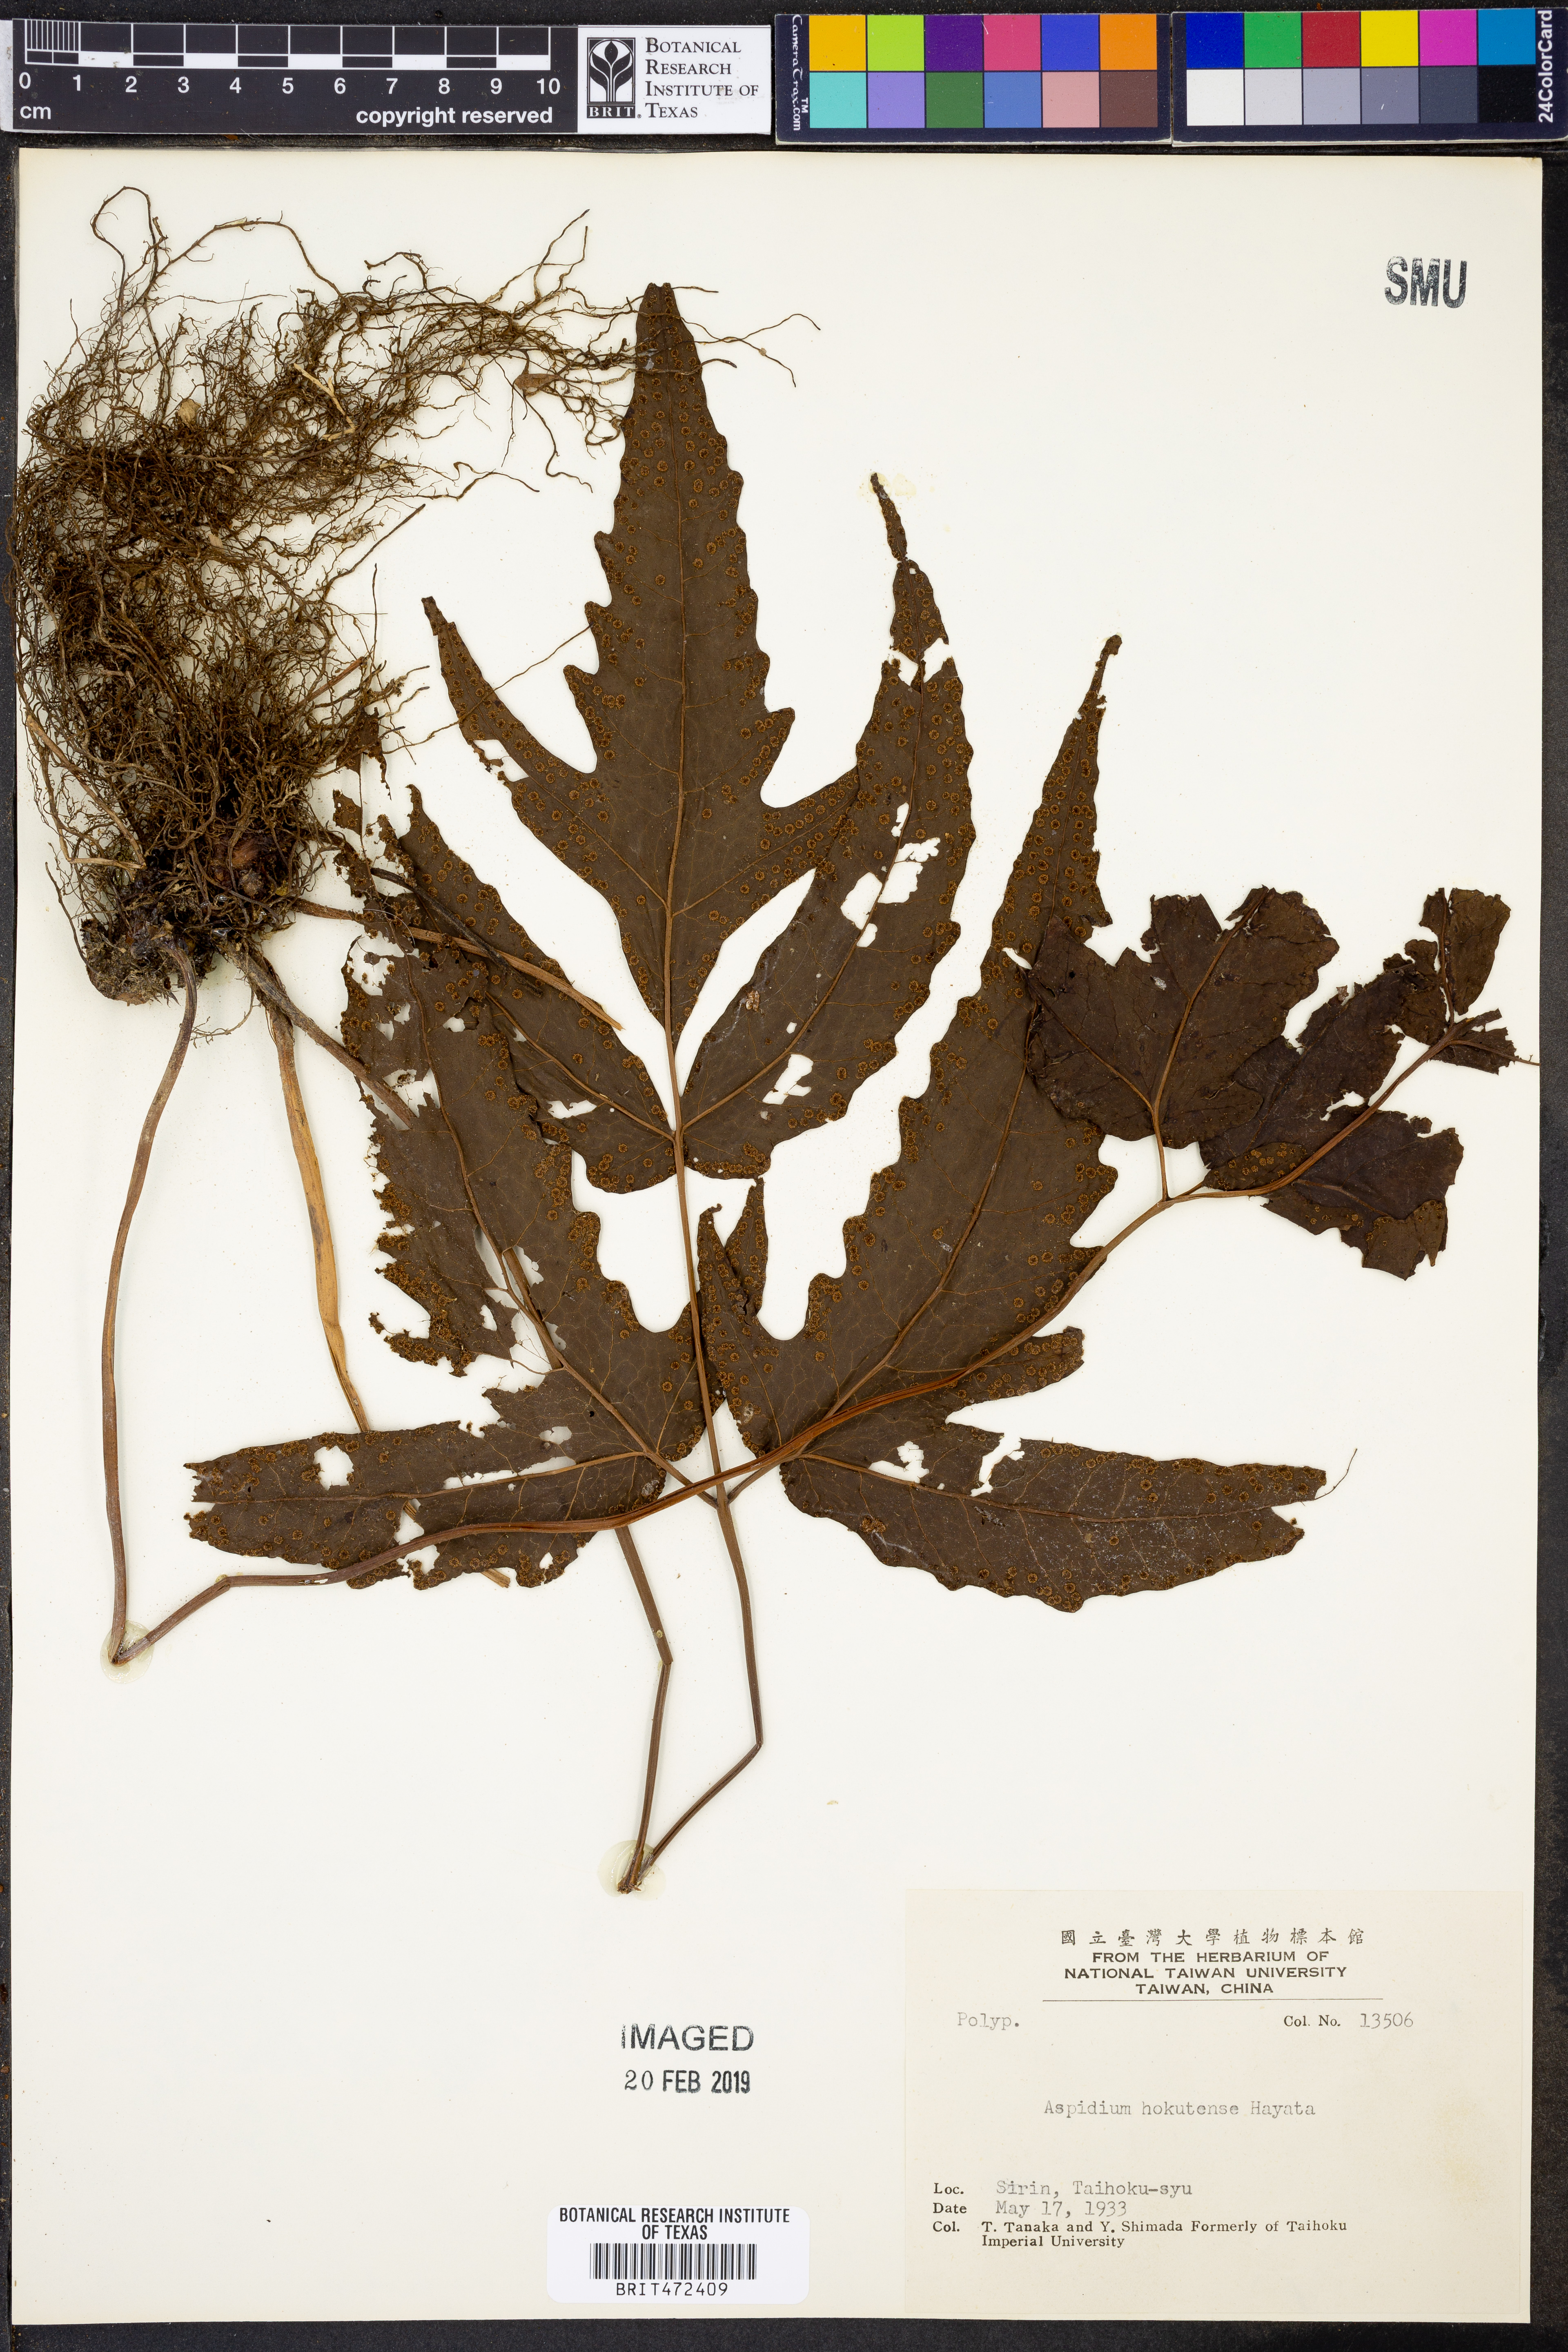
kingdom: Plantae
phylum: Tracheophyta
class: Polypodiopsida
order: Polypodiales
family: Tectariaceae
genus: Tectaria
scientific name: Tectaria subtriphylla
